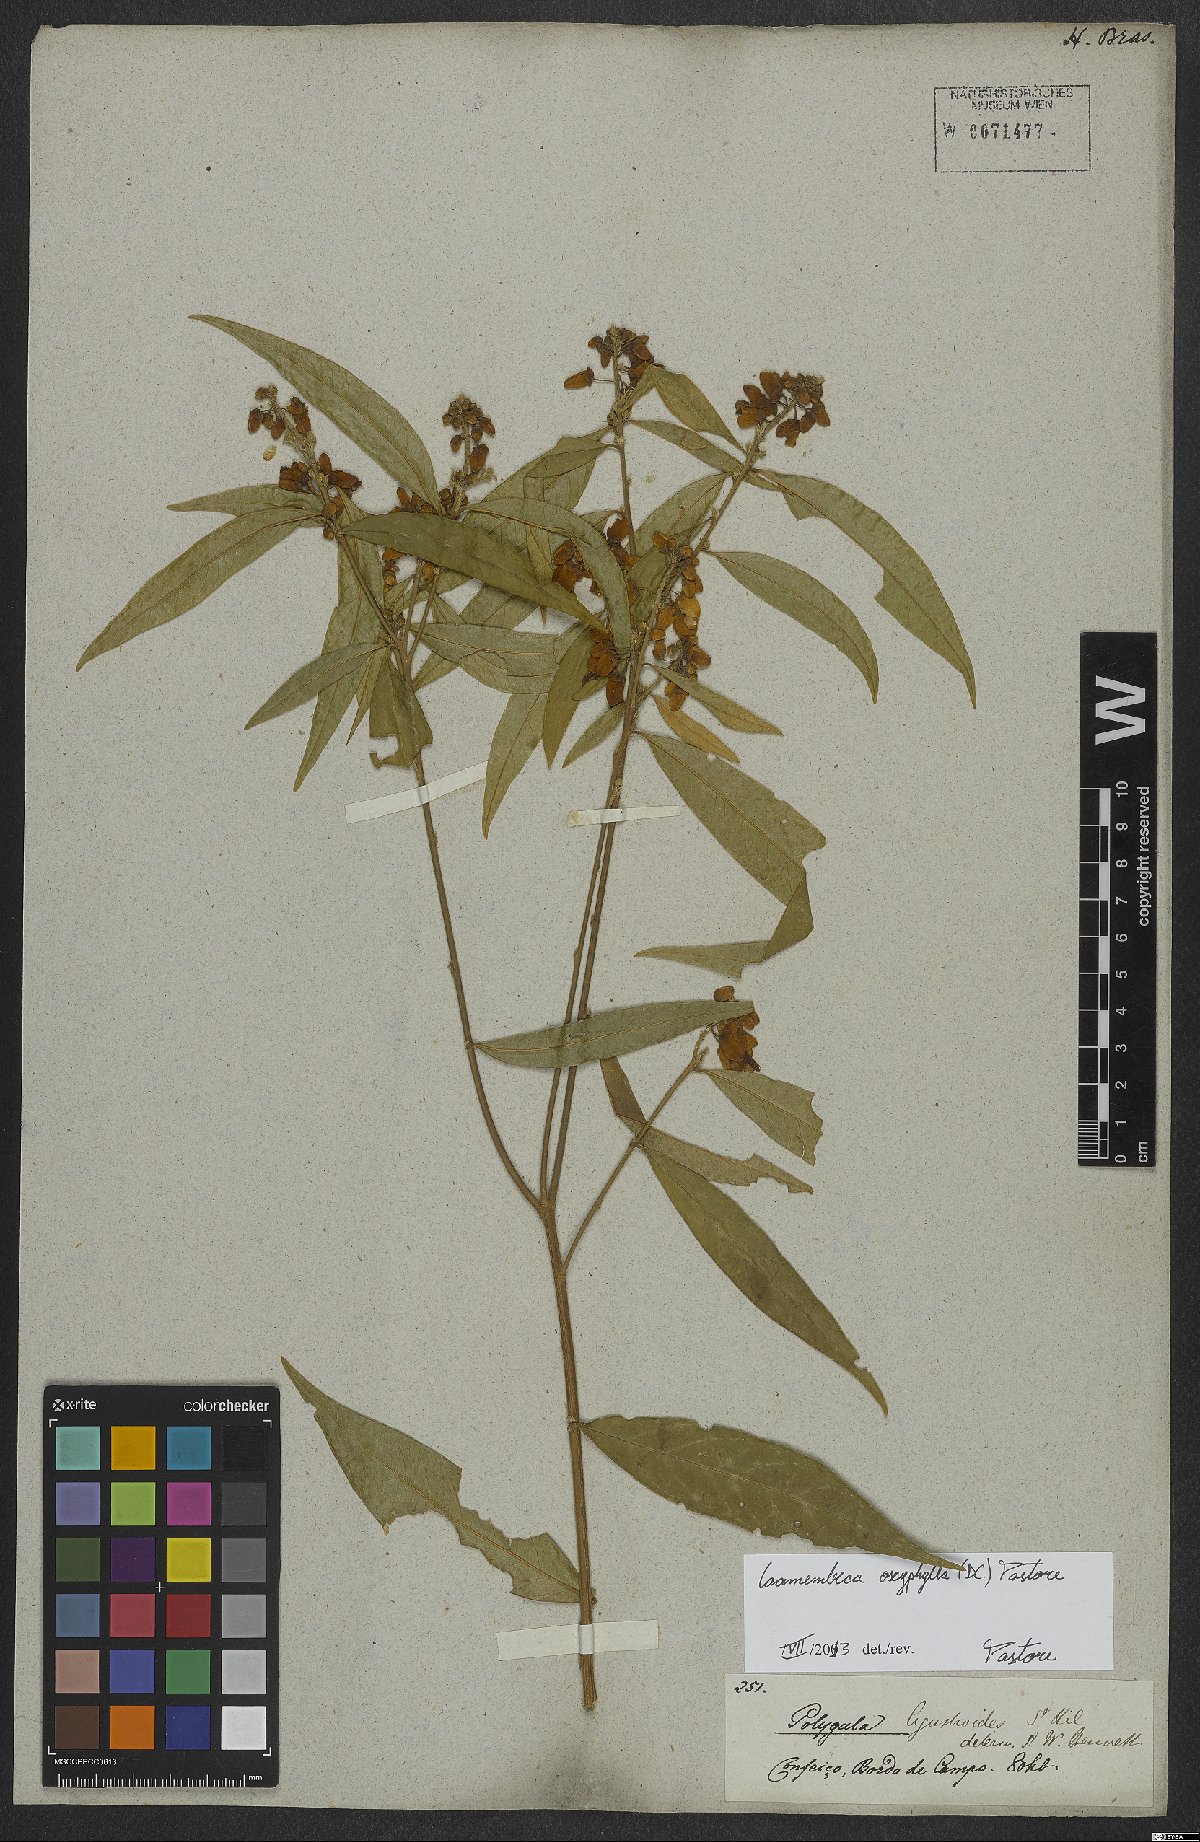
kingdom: Plantae
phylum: Tracheophyta
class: Magnoliopsida
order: Fabales
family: Polygalaceae
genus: Caamembeca
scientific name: Caamembeca oxyphylla
